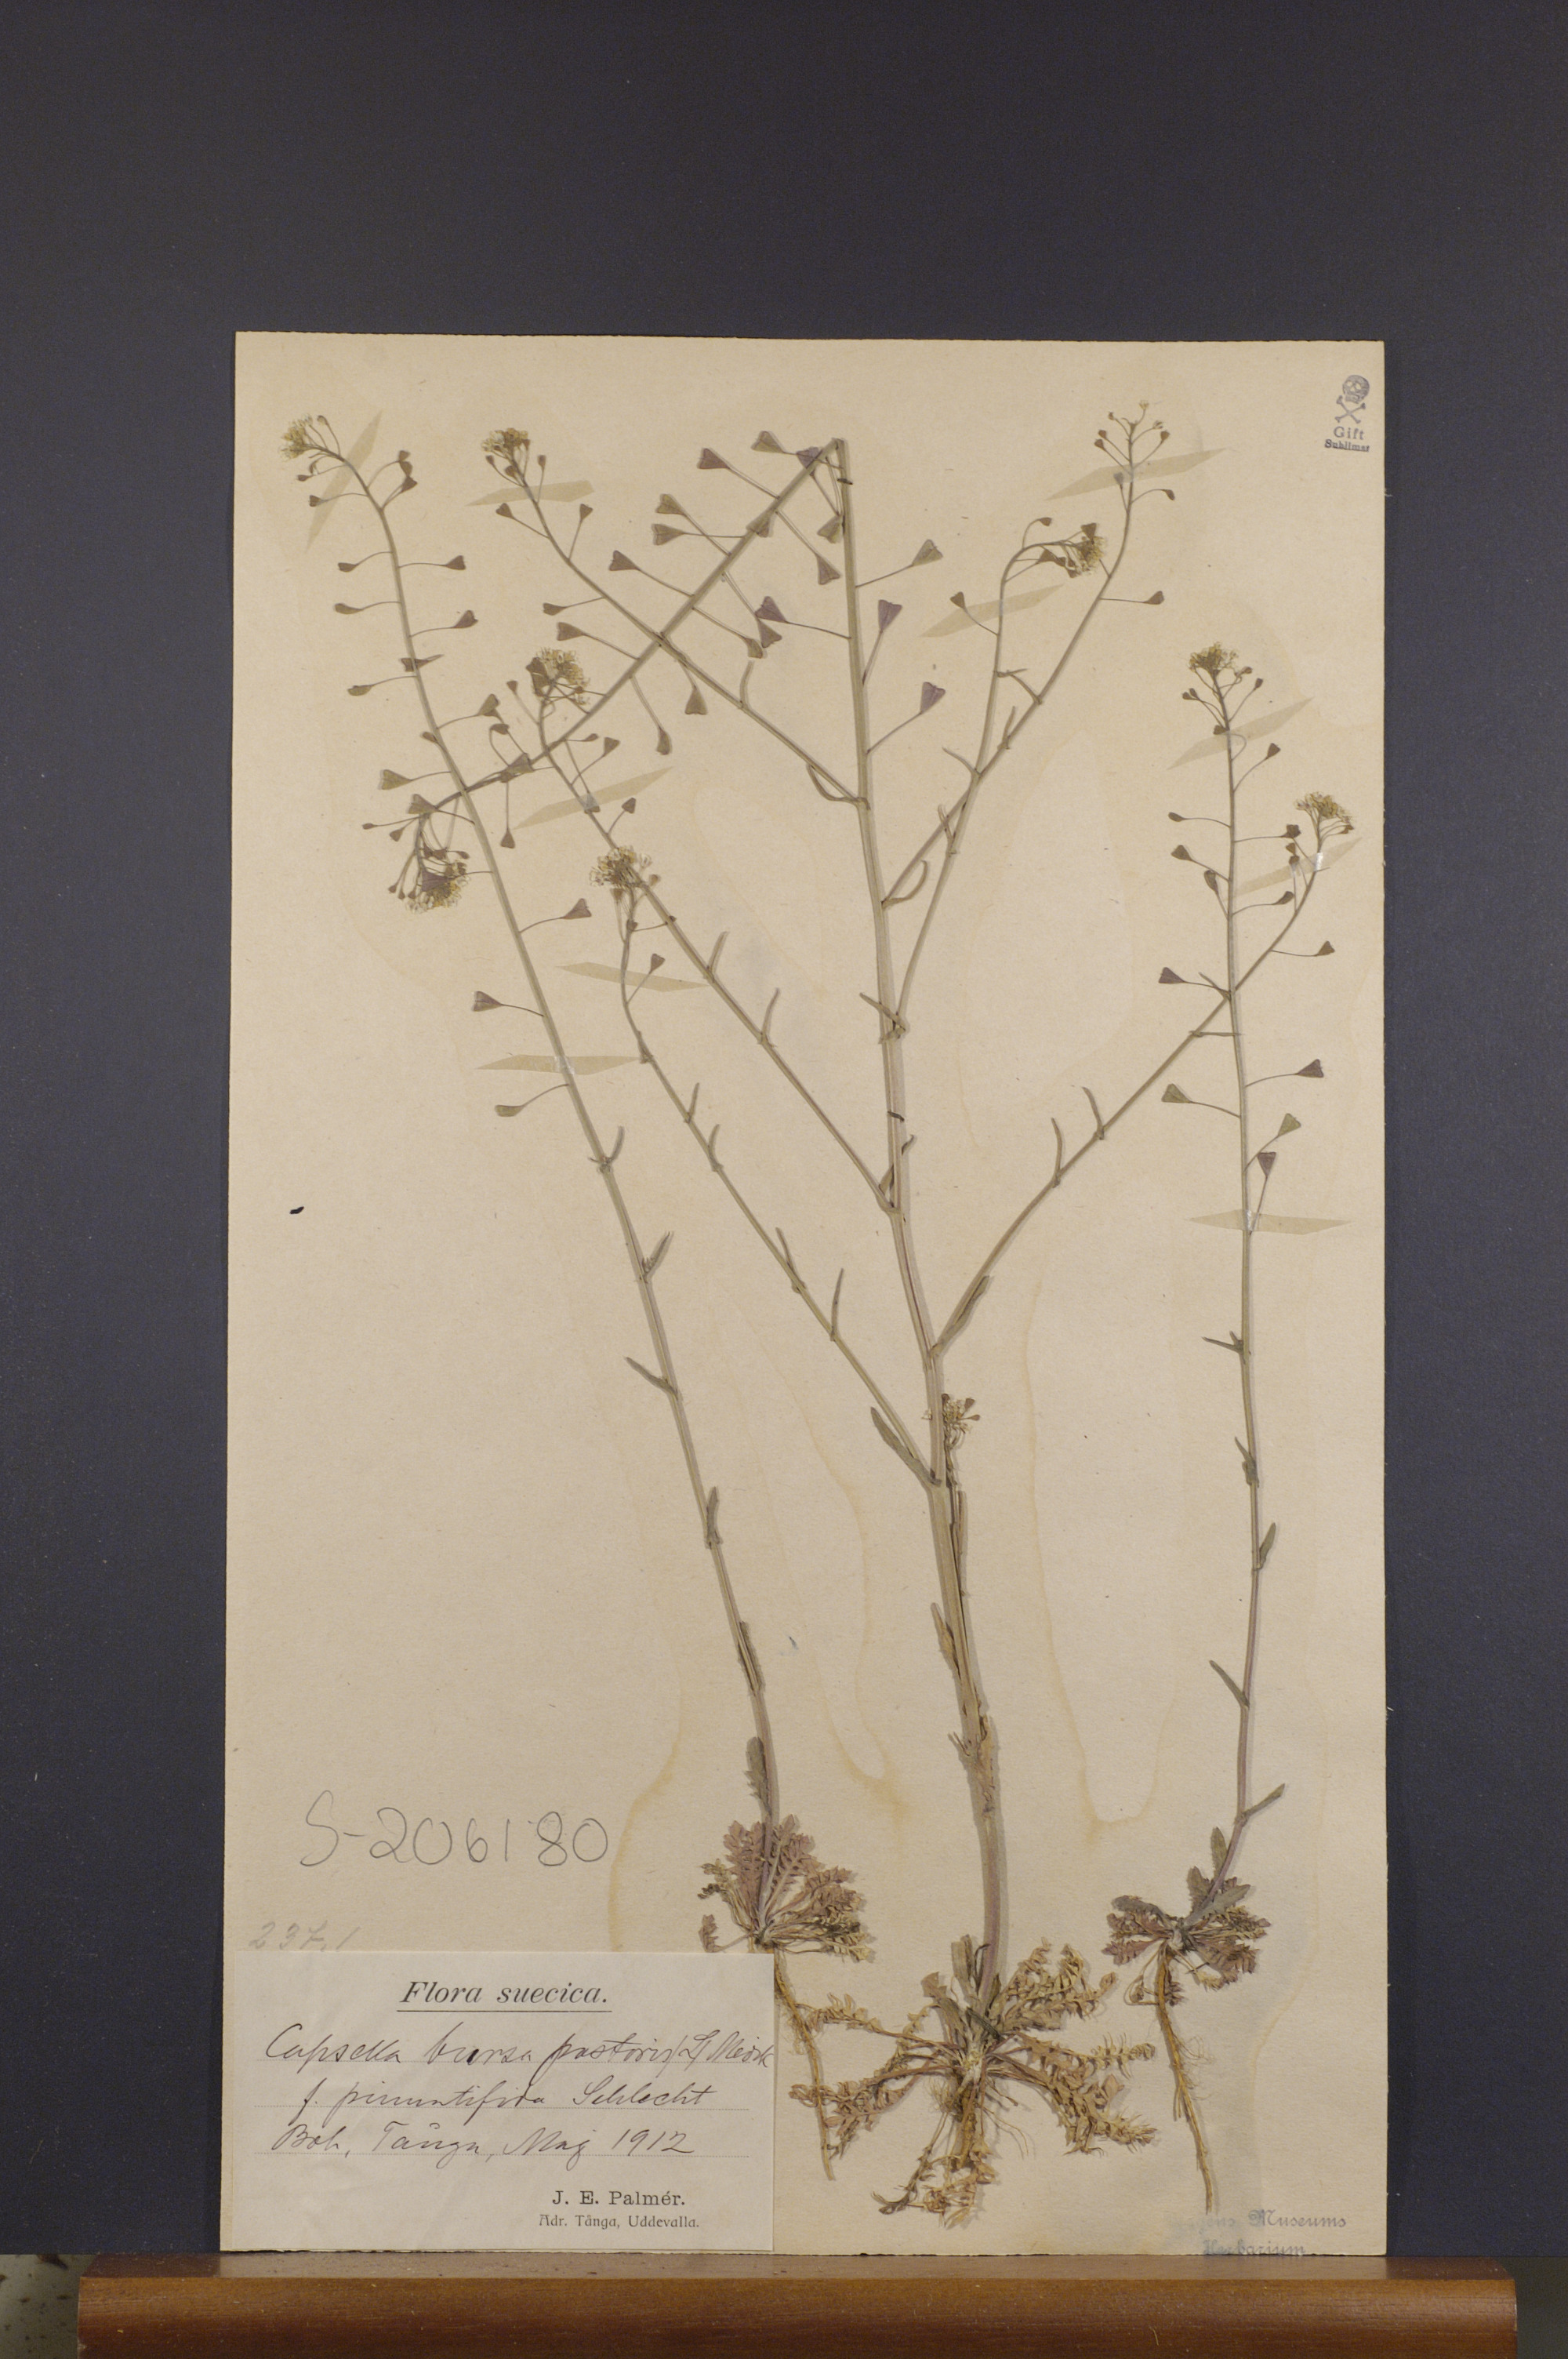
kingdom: Plantae
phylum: Tracheophyta
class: Magnoliopsida
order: Brassicales
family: Brassicaceae
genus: Capsella
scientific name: Capsella bursa-pastoris
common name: Shepherd's purse
